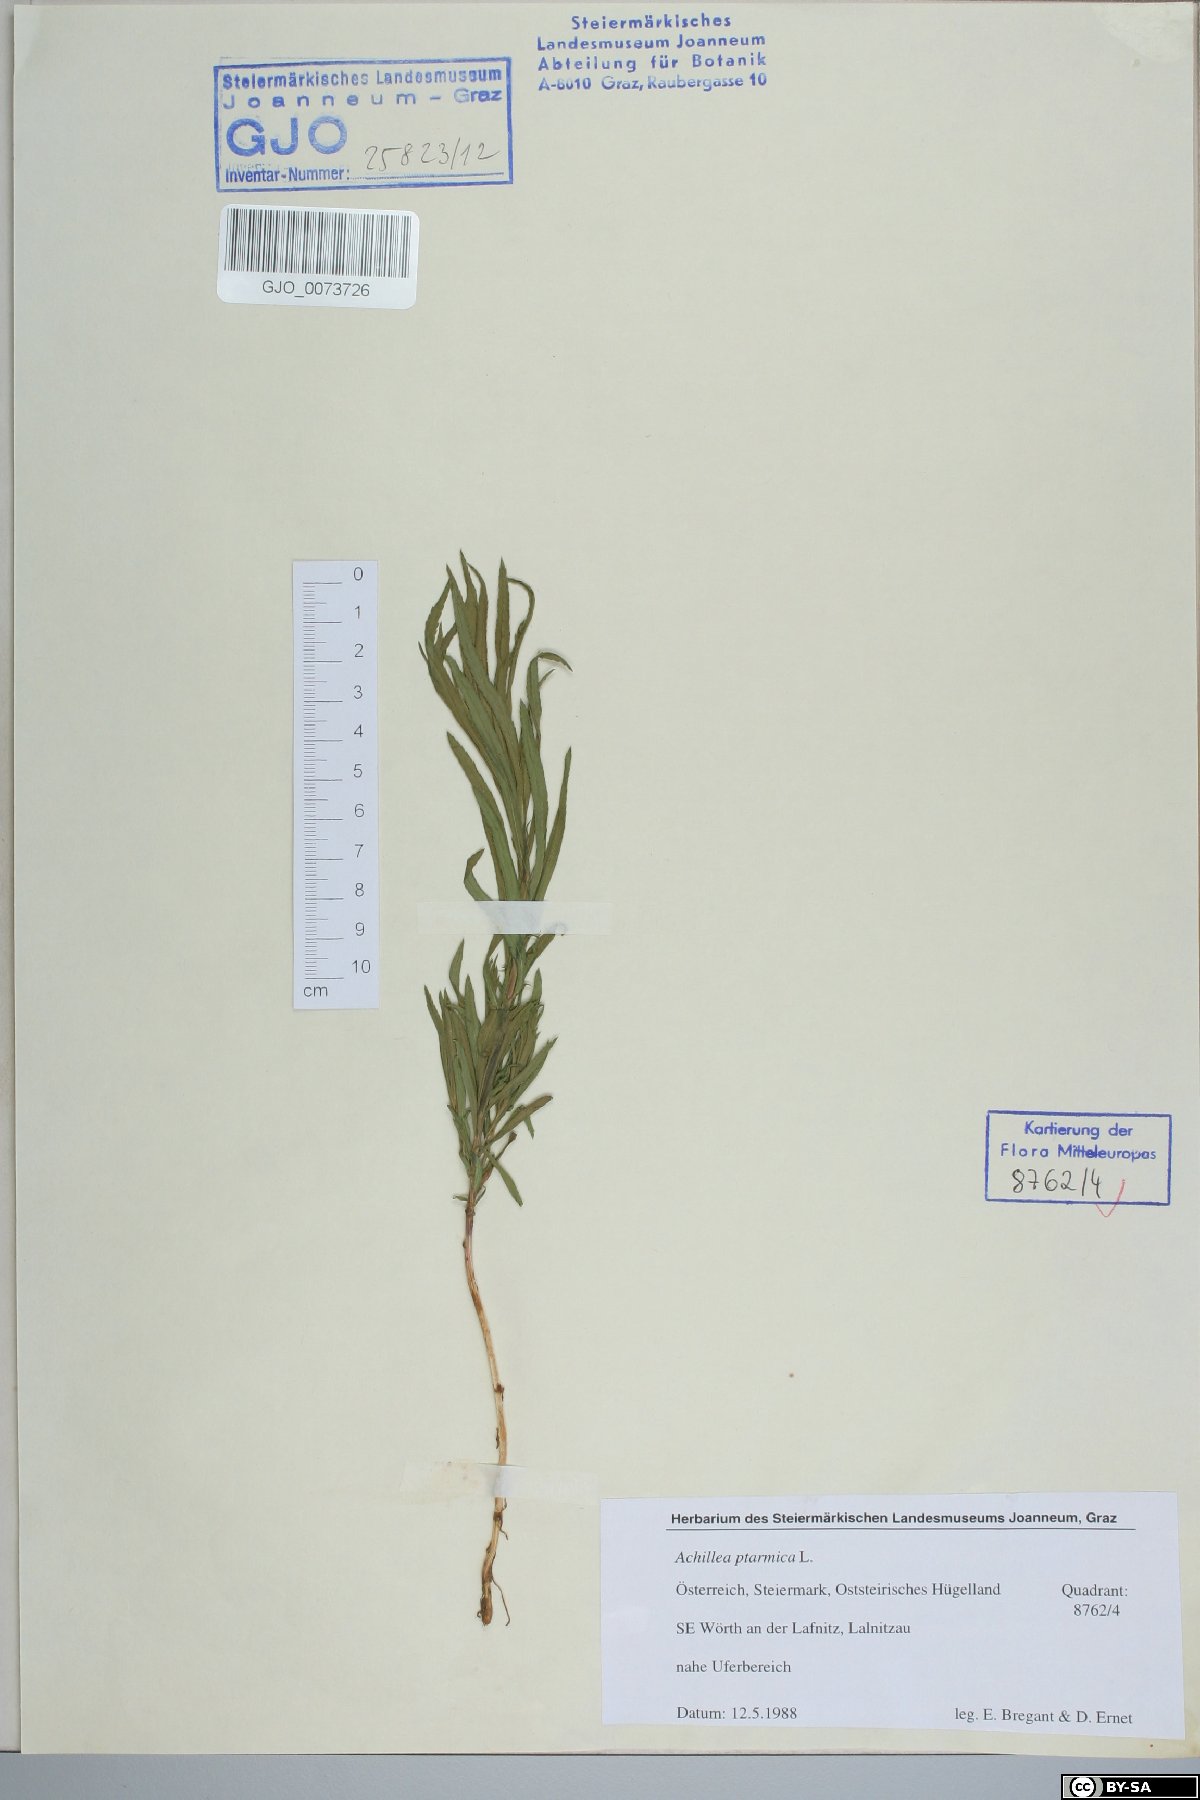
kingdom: Plantae
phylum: Tracheophyta
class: Magnoliopsida
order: Asterales
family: Asteraceae
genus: Achillea
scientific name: Achillea ptarmica
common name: Sneezeweed
